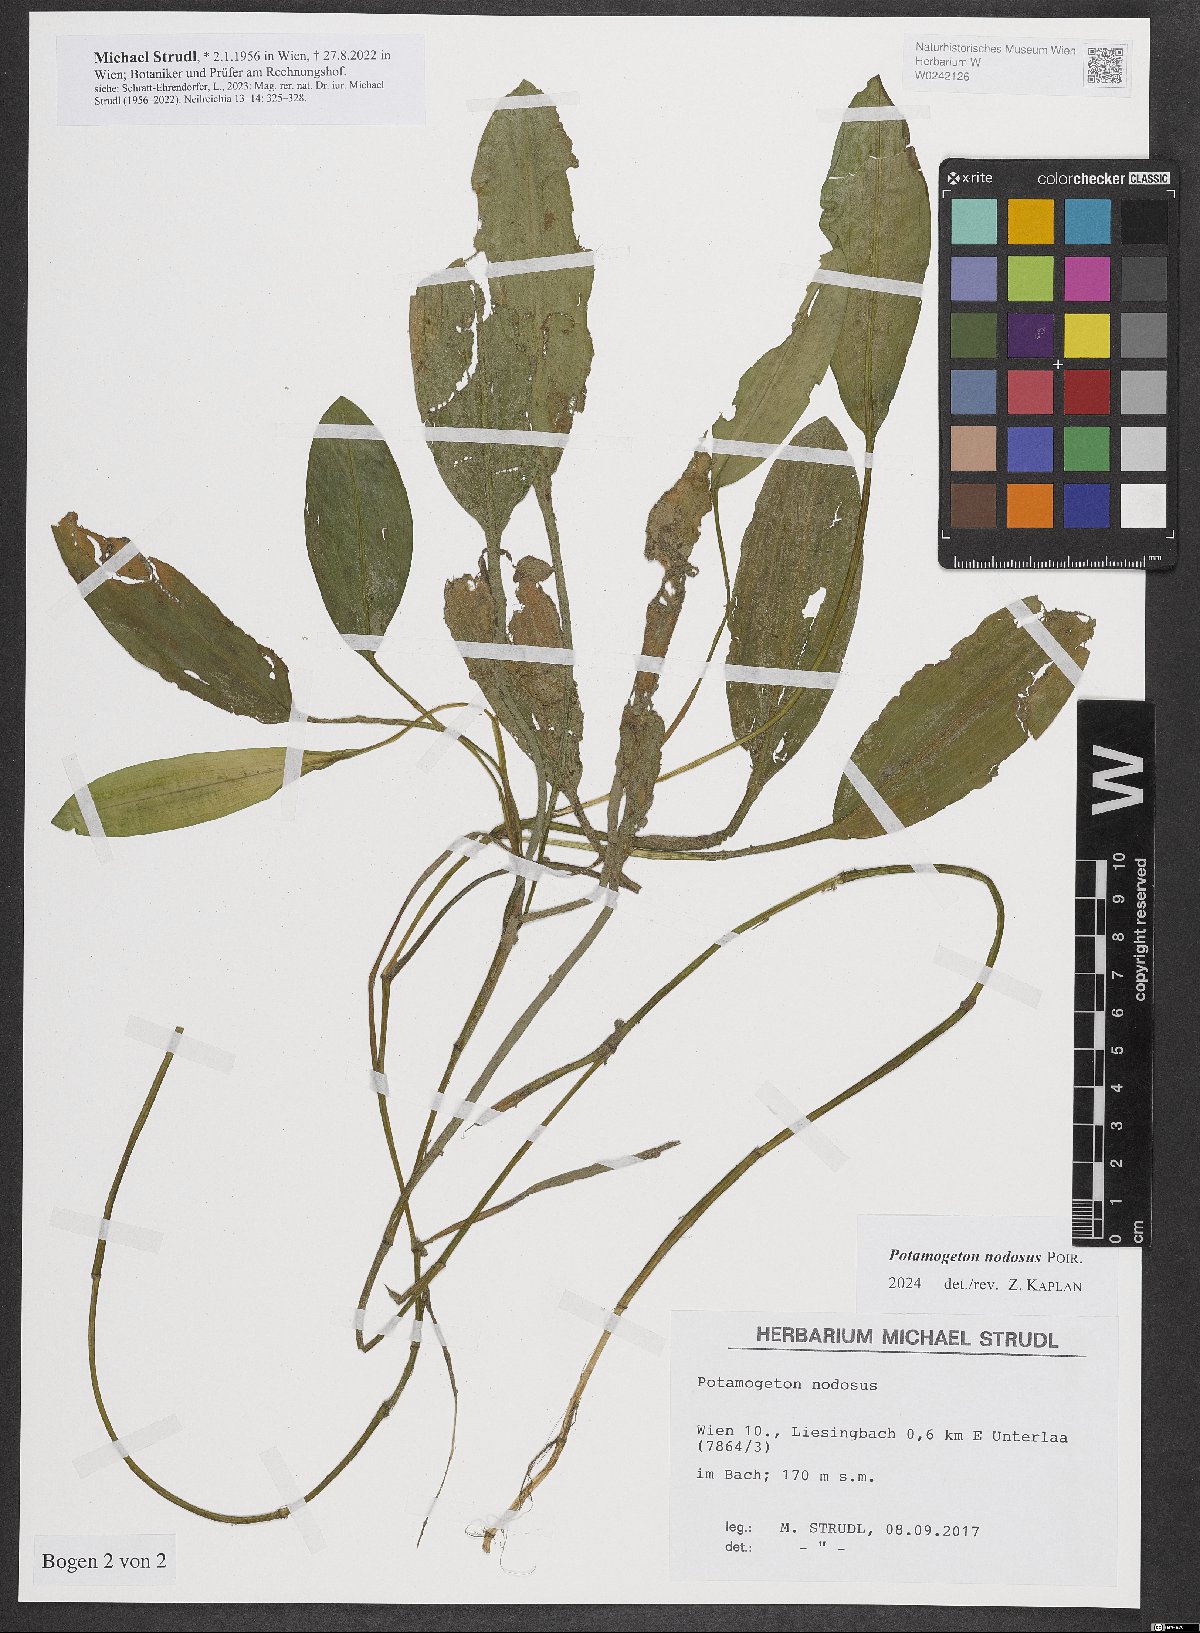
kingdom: Plantae
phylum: Tracheophyta
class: Liliopsida
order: Alismatales
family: Potamogetonaceae
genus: Potamogeton
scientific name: Potamogeton nodosus
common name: Loddon pondweed
